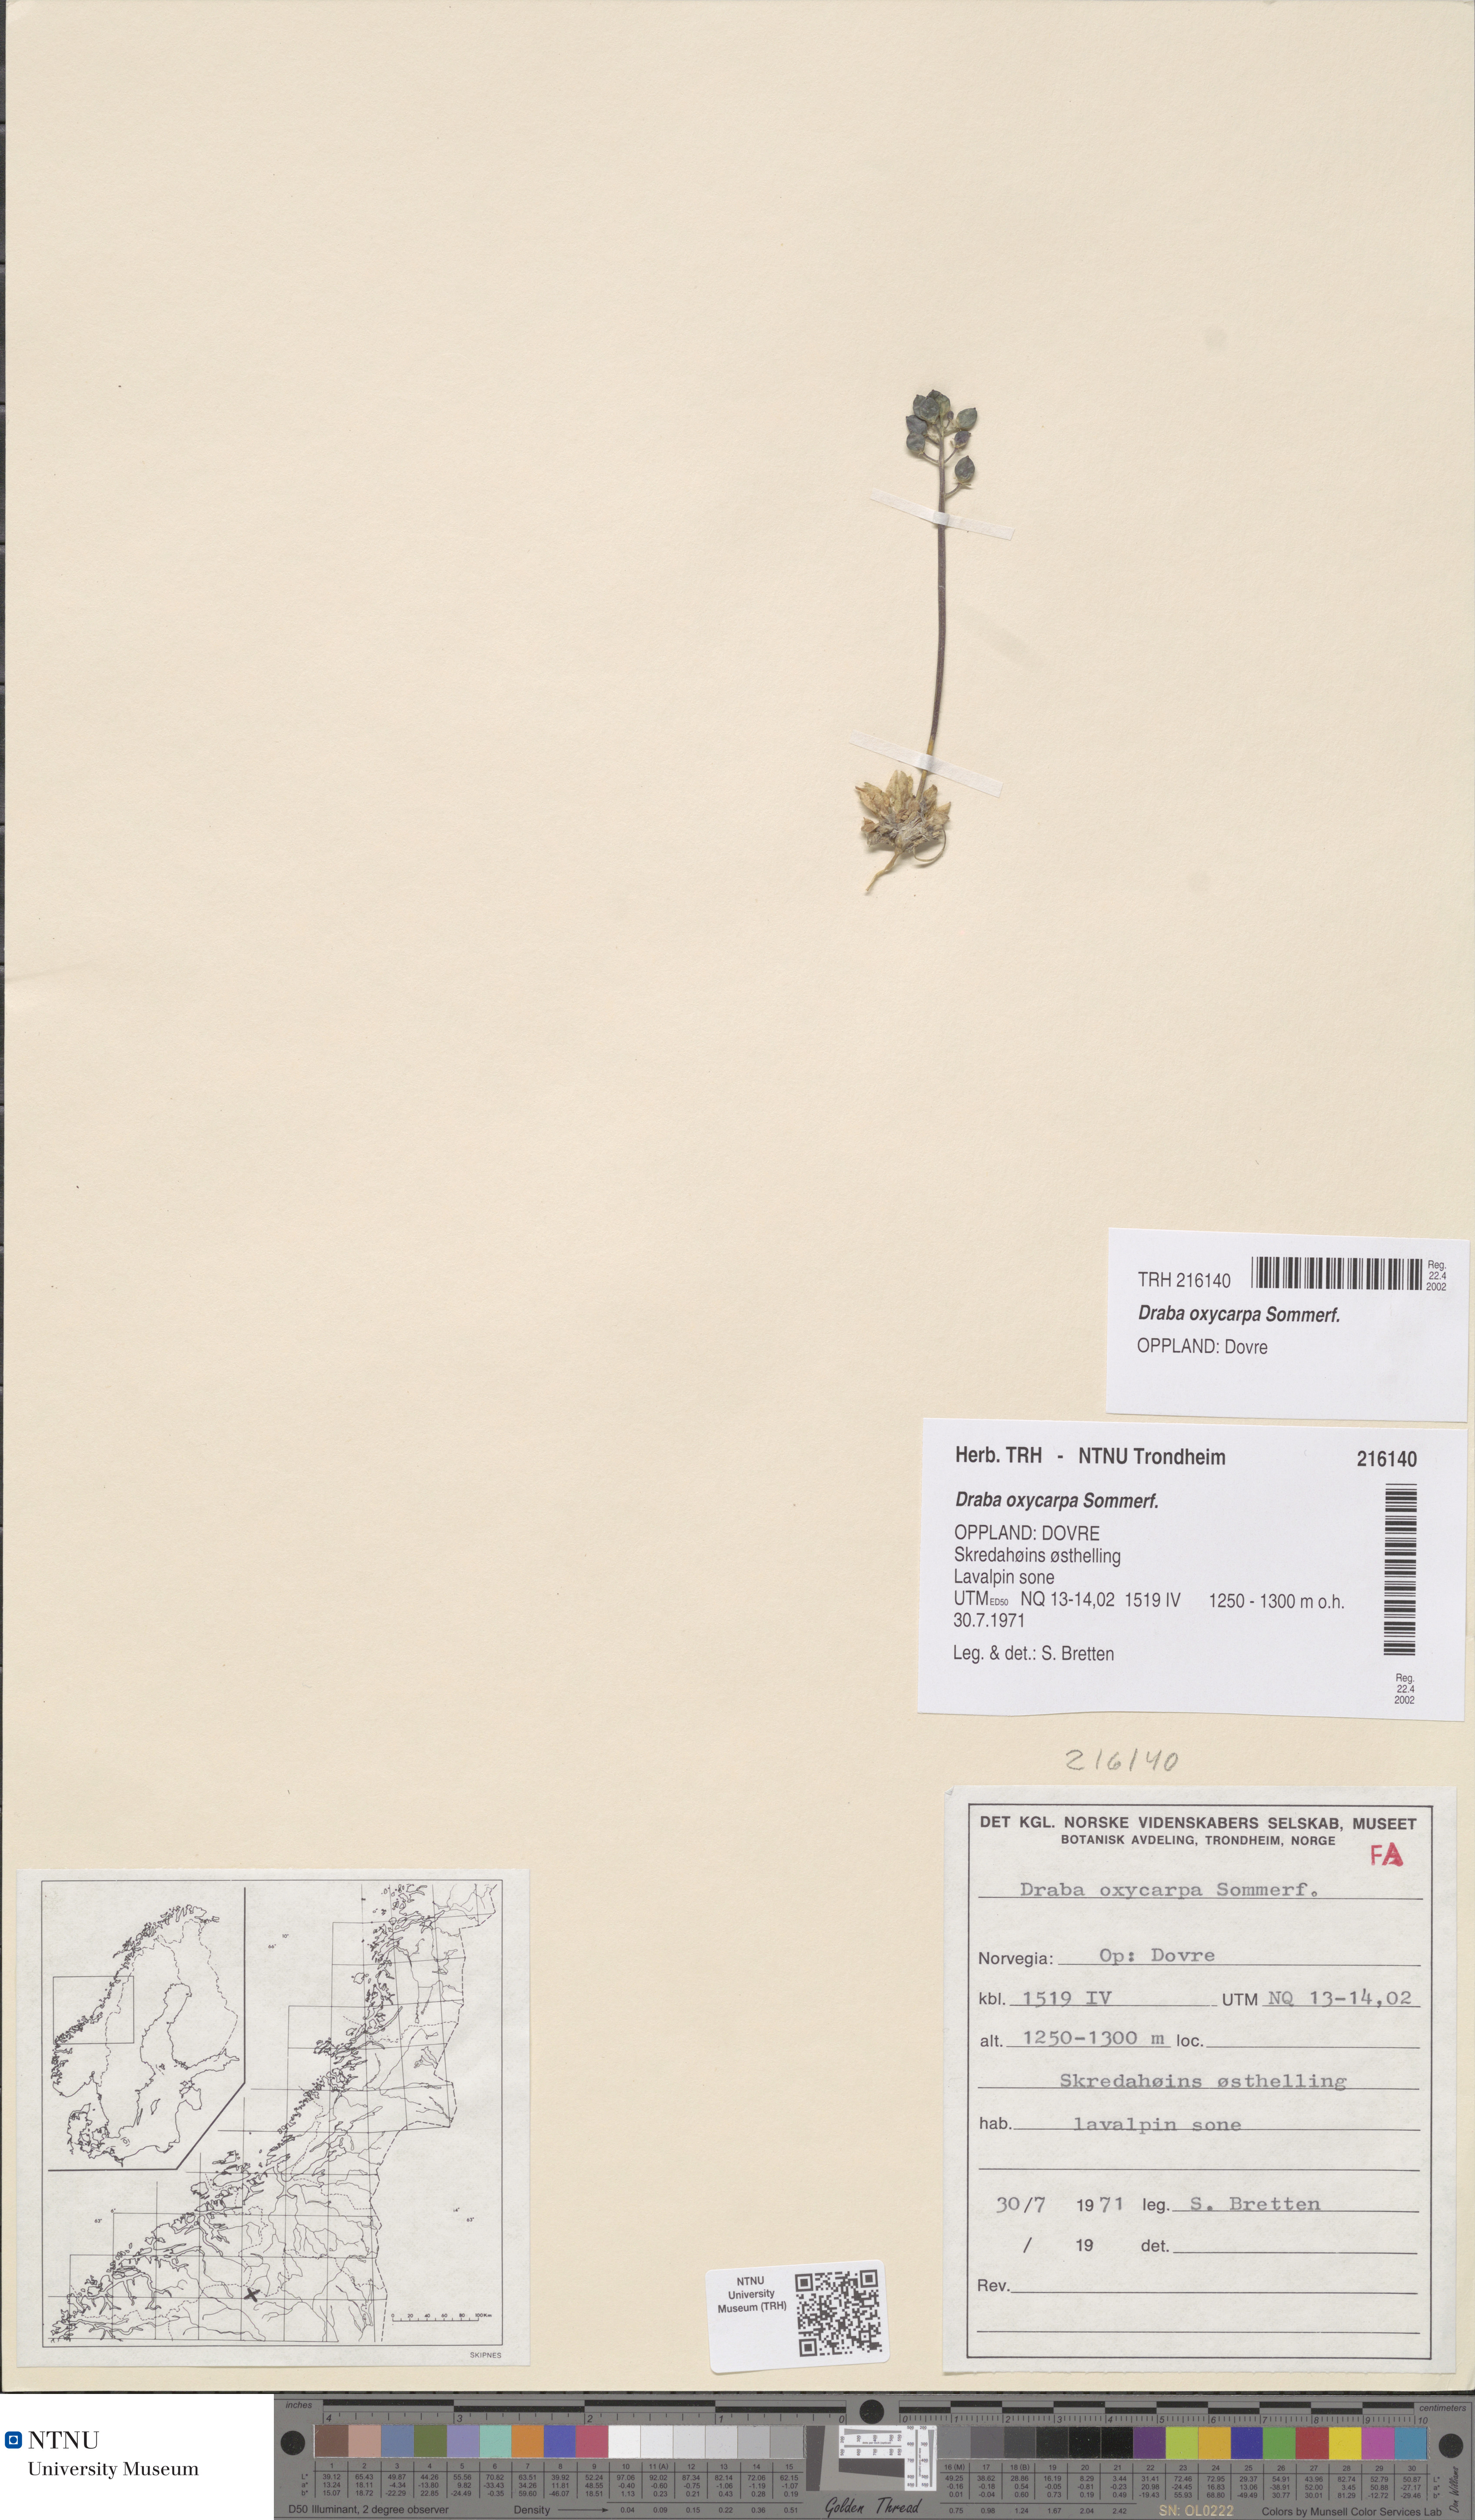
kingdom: Plantae
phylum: Tracheophyta
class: Magnoliopsida
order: Brassicales
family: Brassicaceae
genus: Draba
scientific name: Draba oxycarpa
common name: Sharp-fruited whitlow-grass
